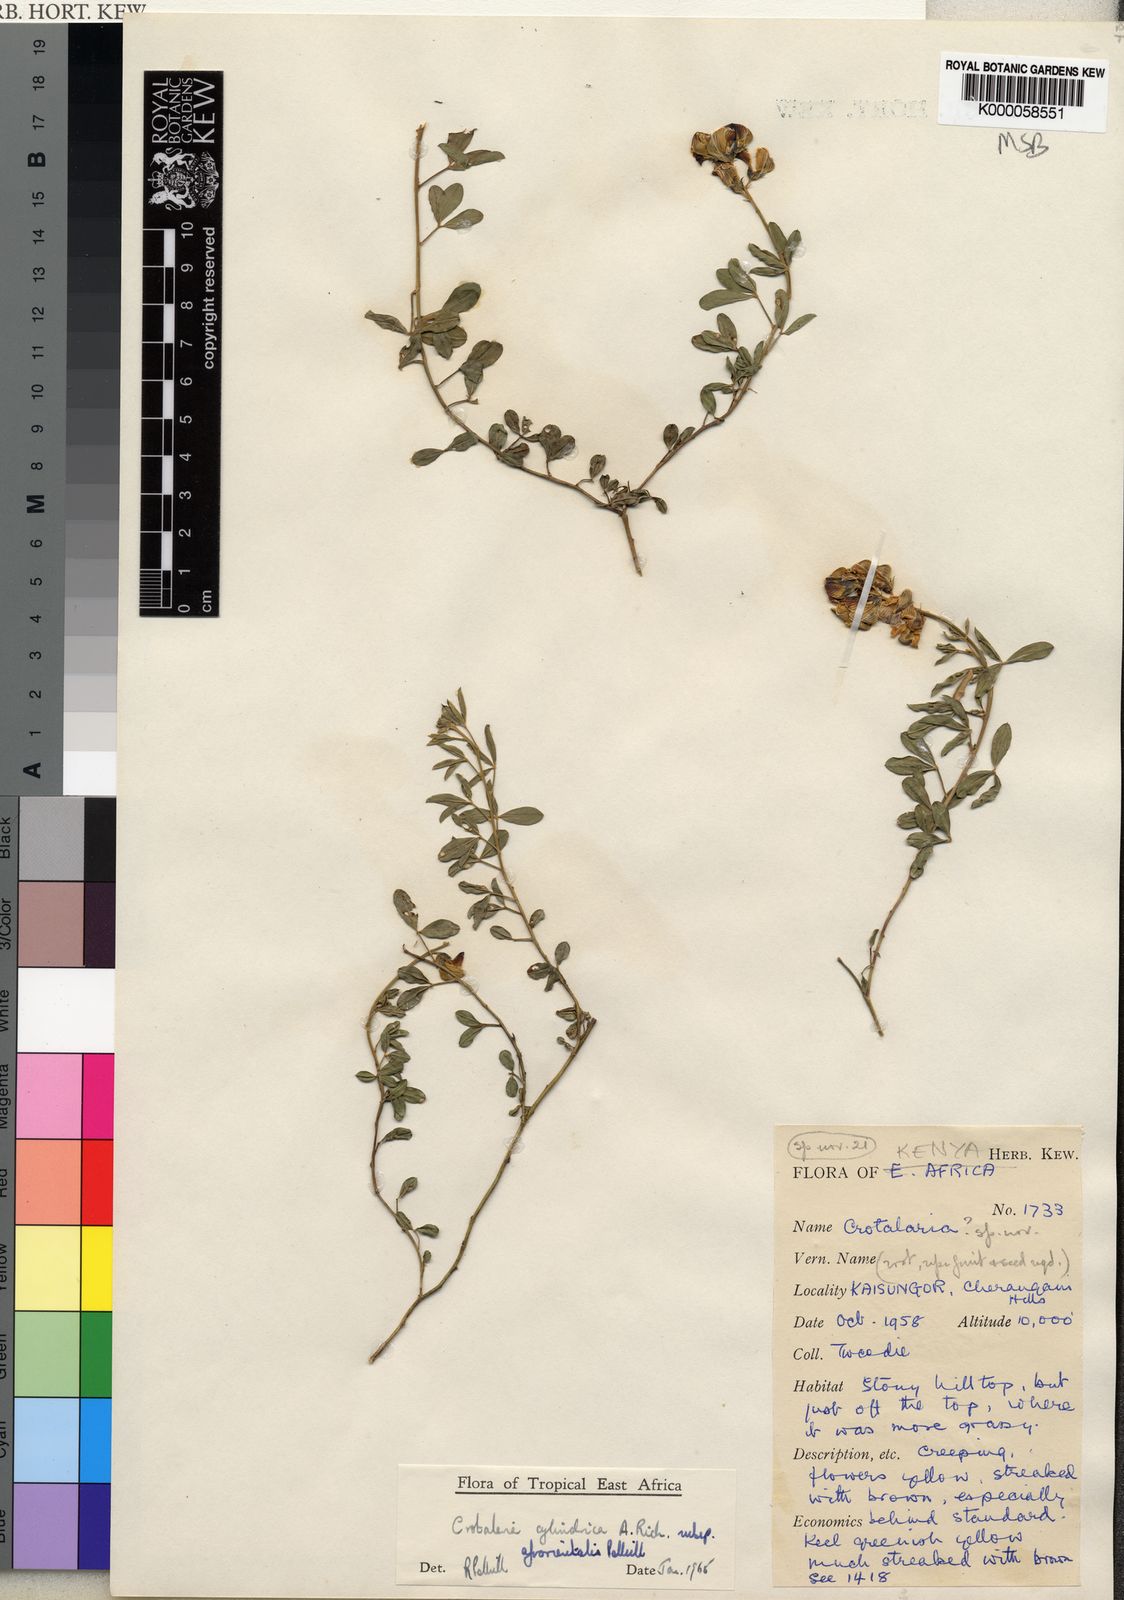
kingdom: Plantae
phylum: Tracheophyta
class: Magnoliopsida
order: Fabales
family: Fabaceae
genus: Crotalaria
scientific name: Crotalaria cylindrica
